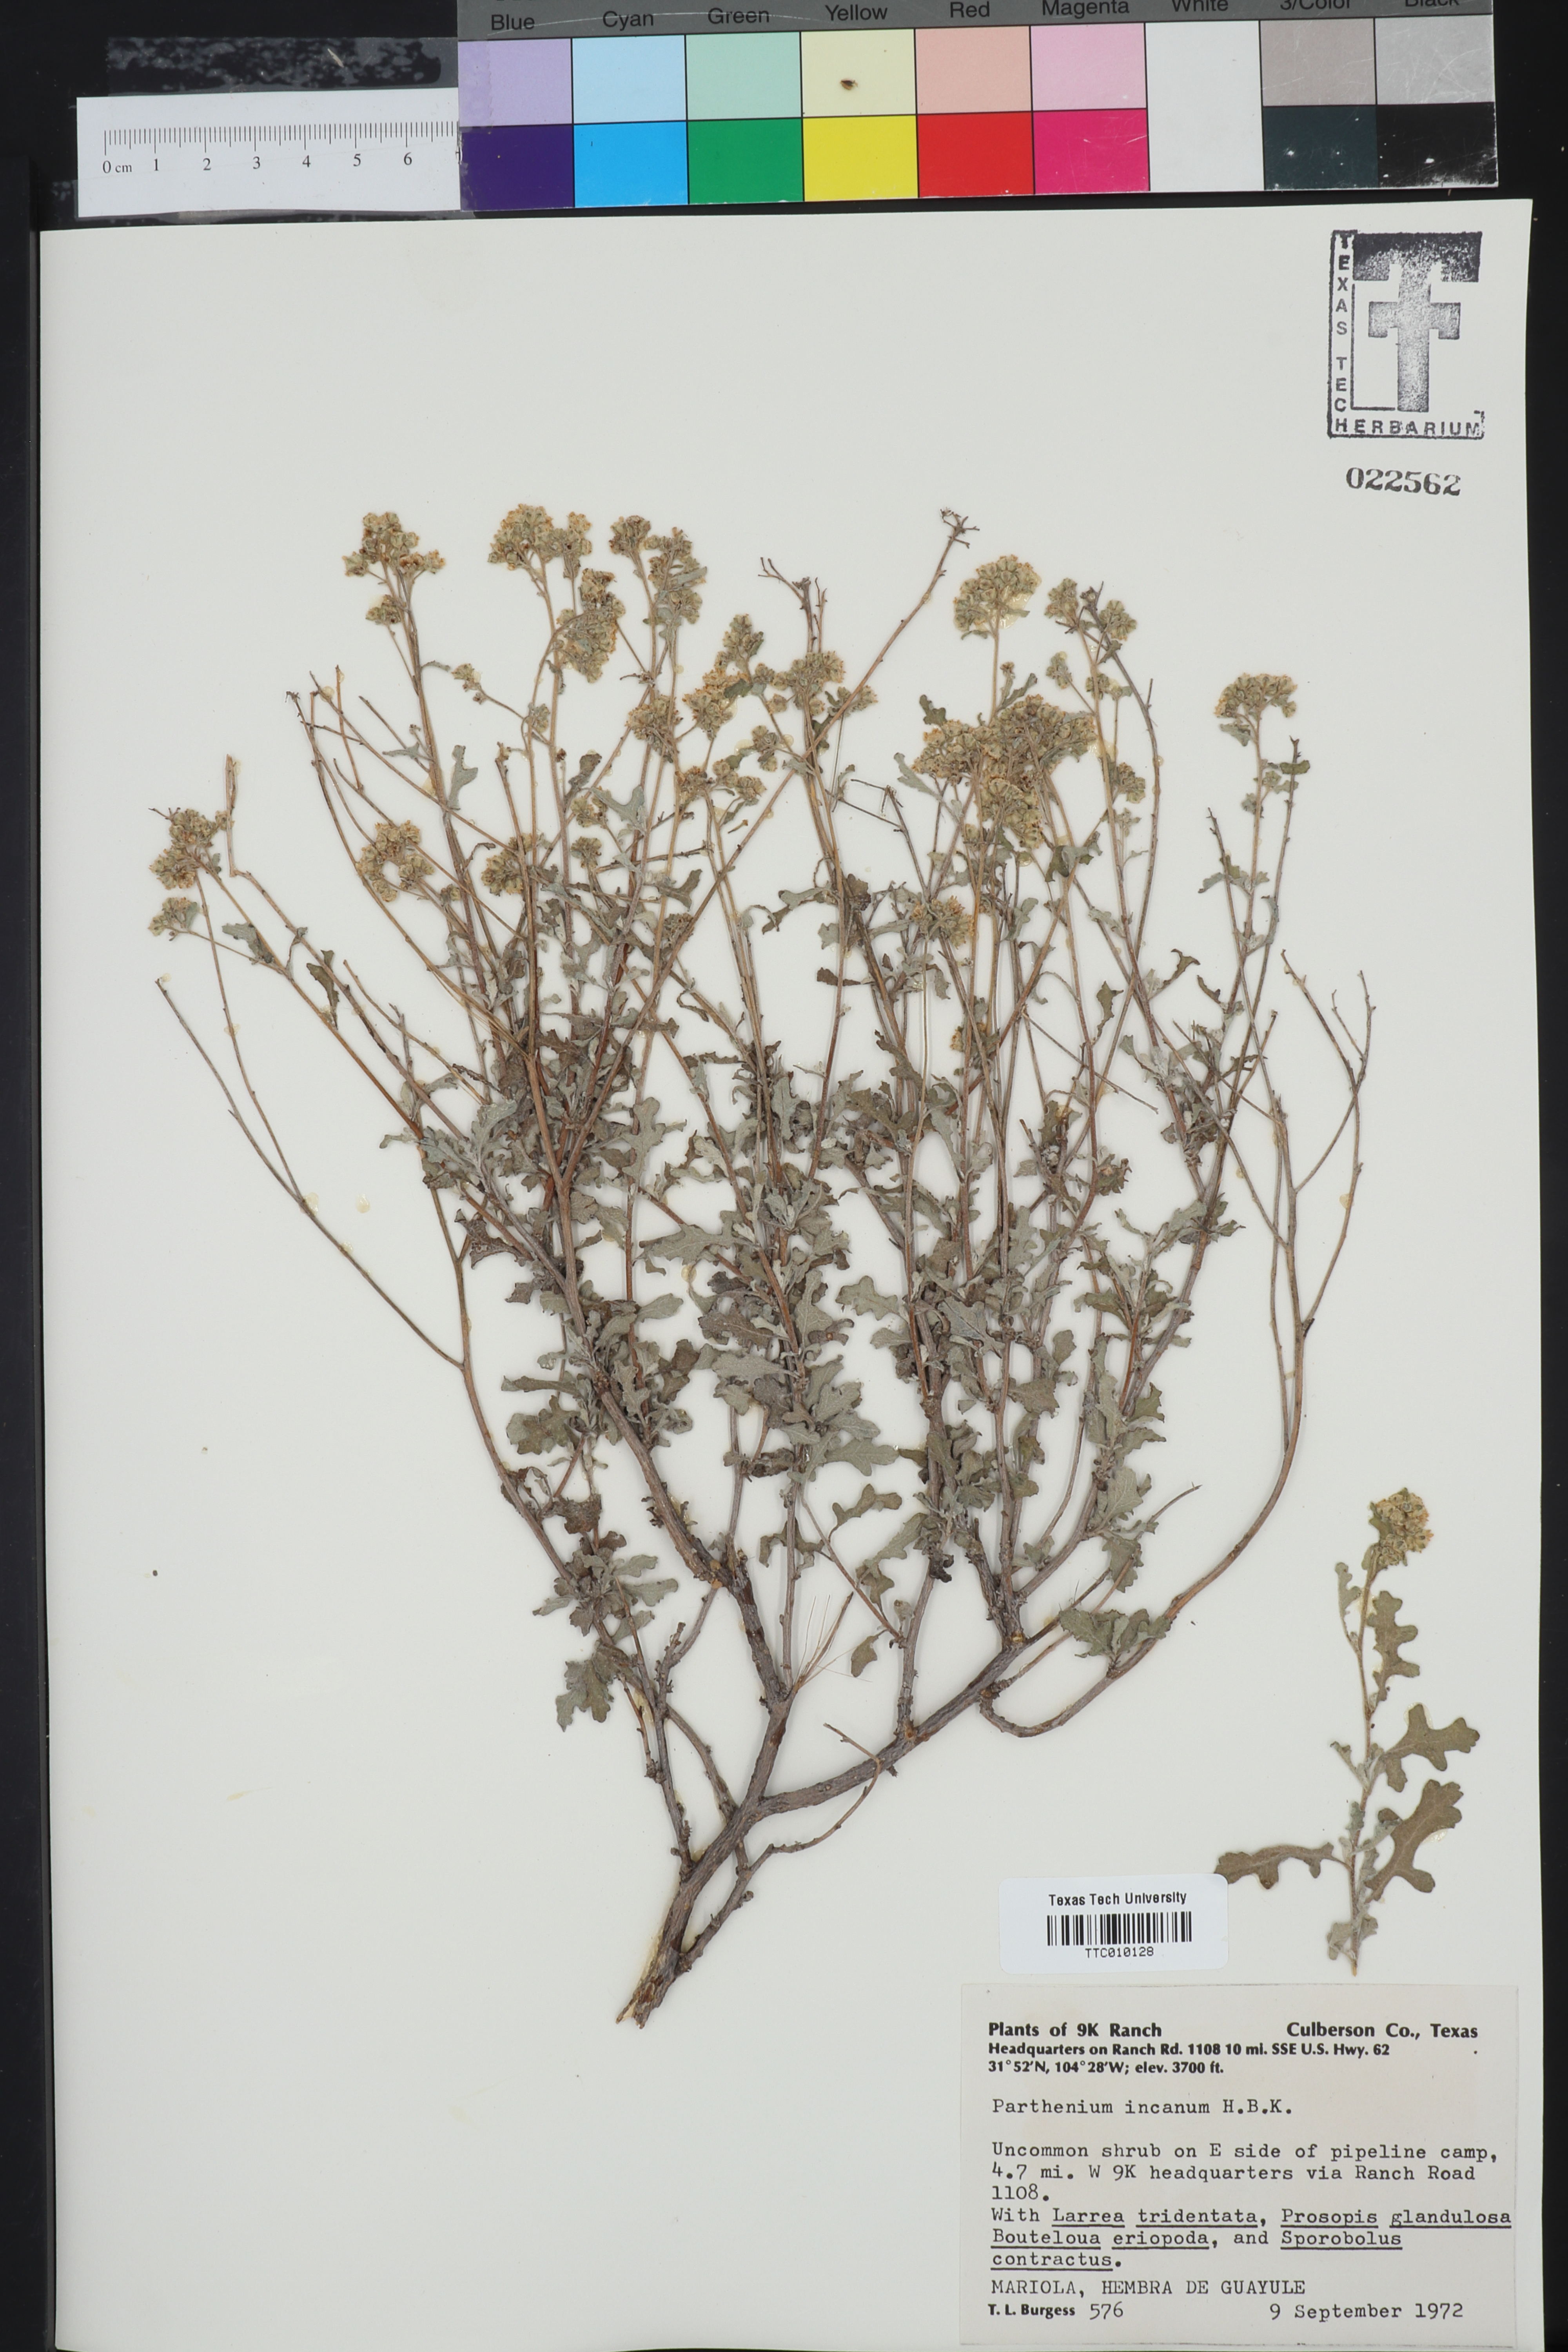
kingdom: Plantae
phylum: Tracheophyta
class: Magnoliopsida
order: Asterales
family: Asteraceae
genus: Parthenium
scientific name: Parthenium incanum
